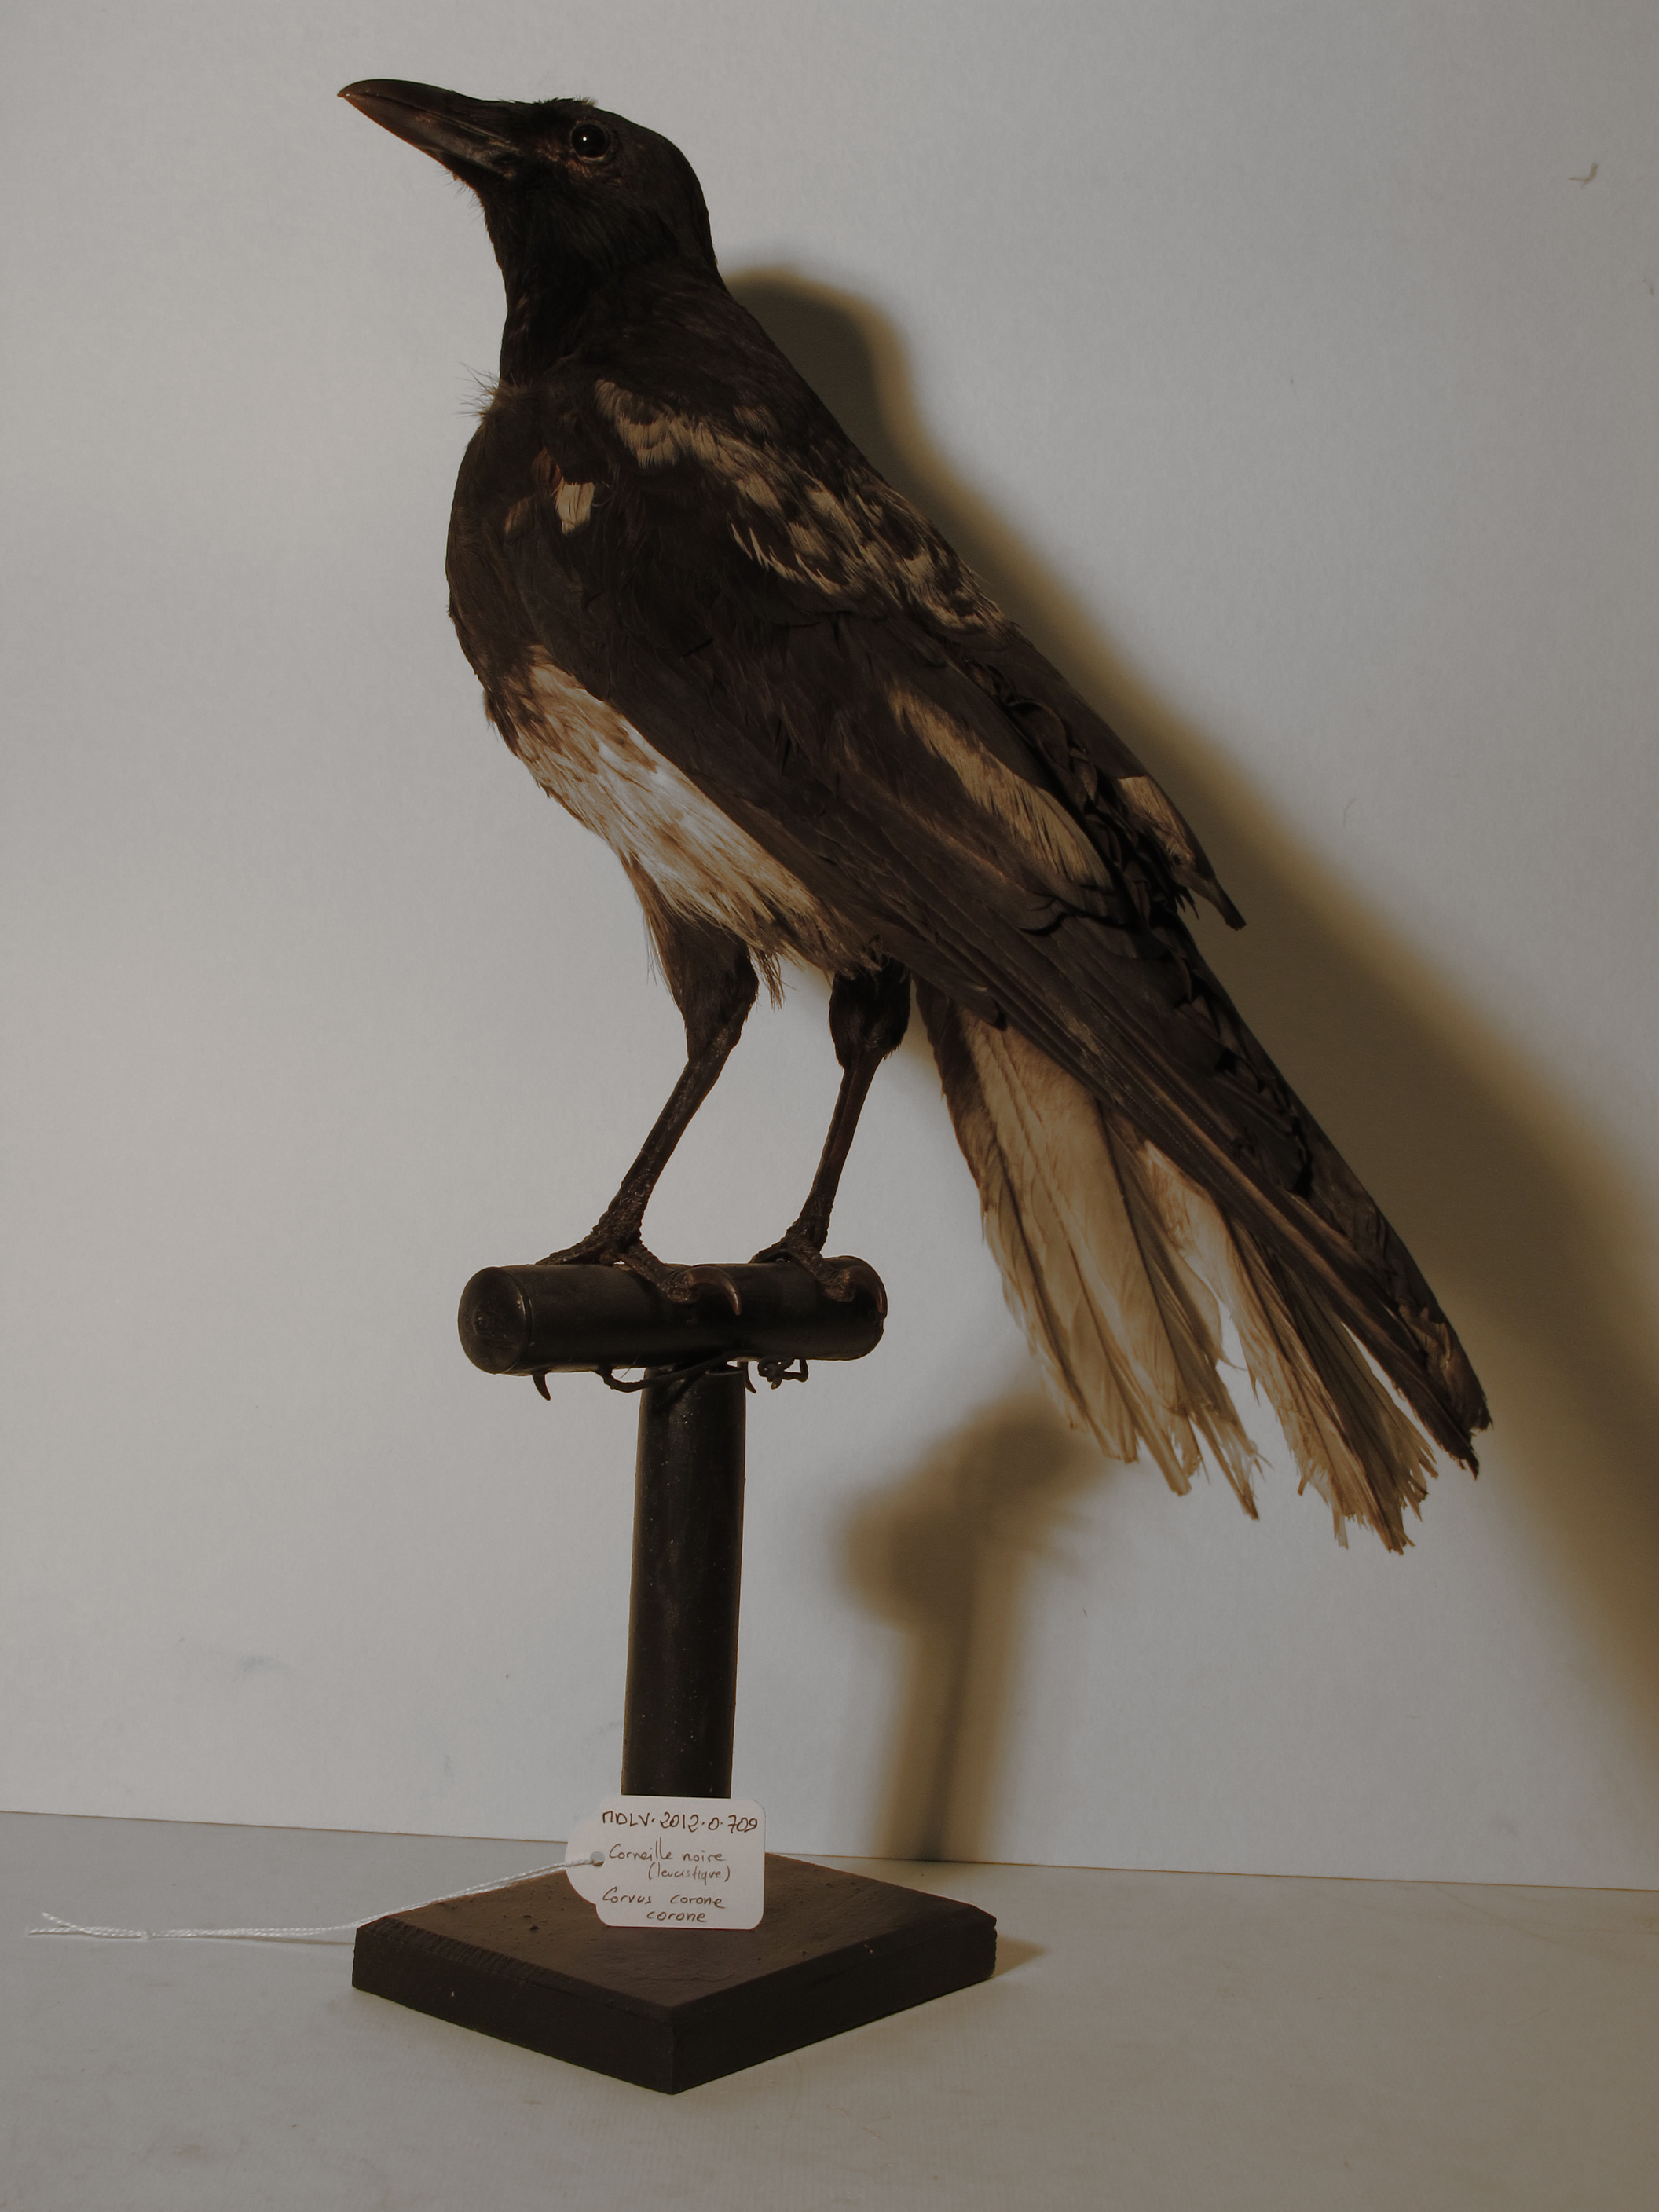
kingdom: Animalia
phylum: Chordata
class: Aves
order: Passeriformes
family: Corvidae
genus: Corvus
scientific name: Corvus corone
